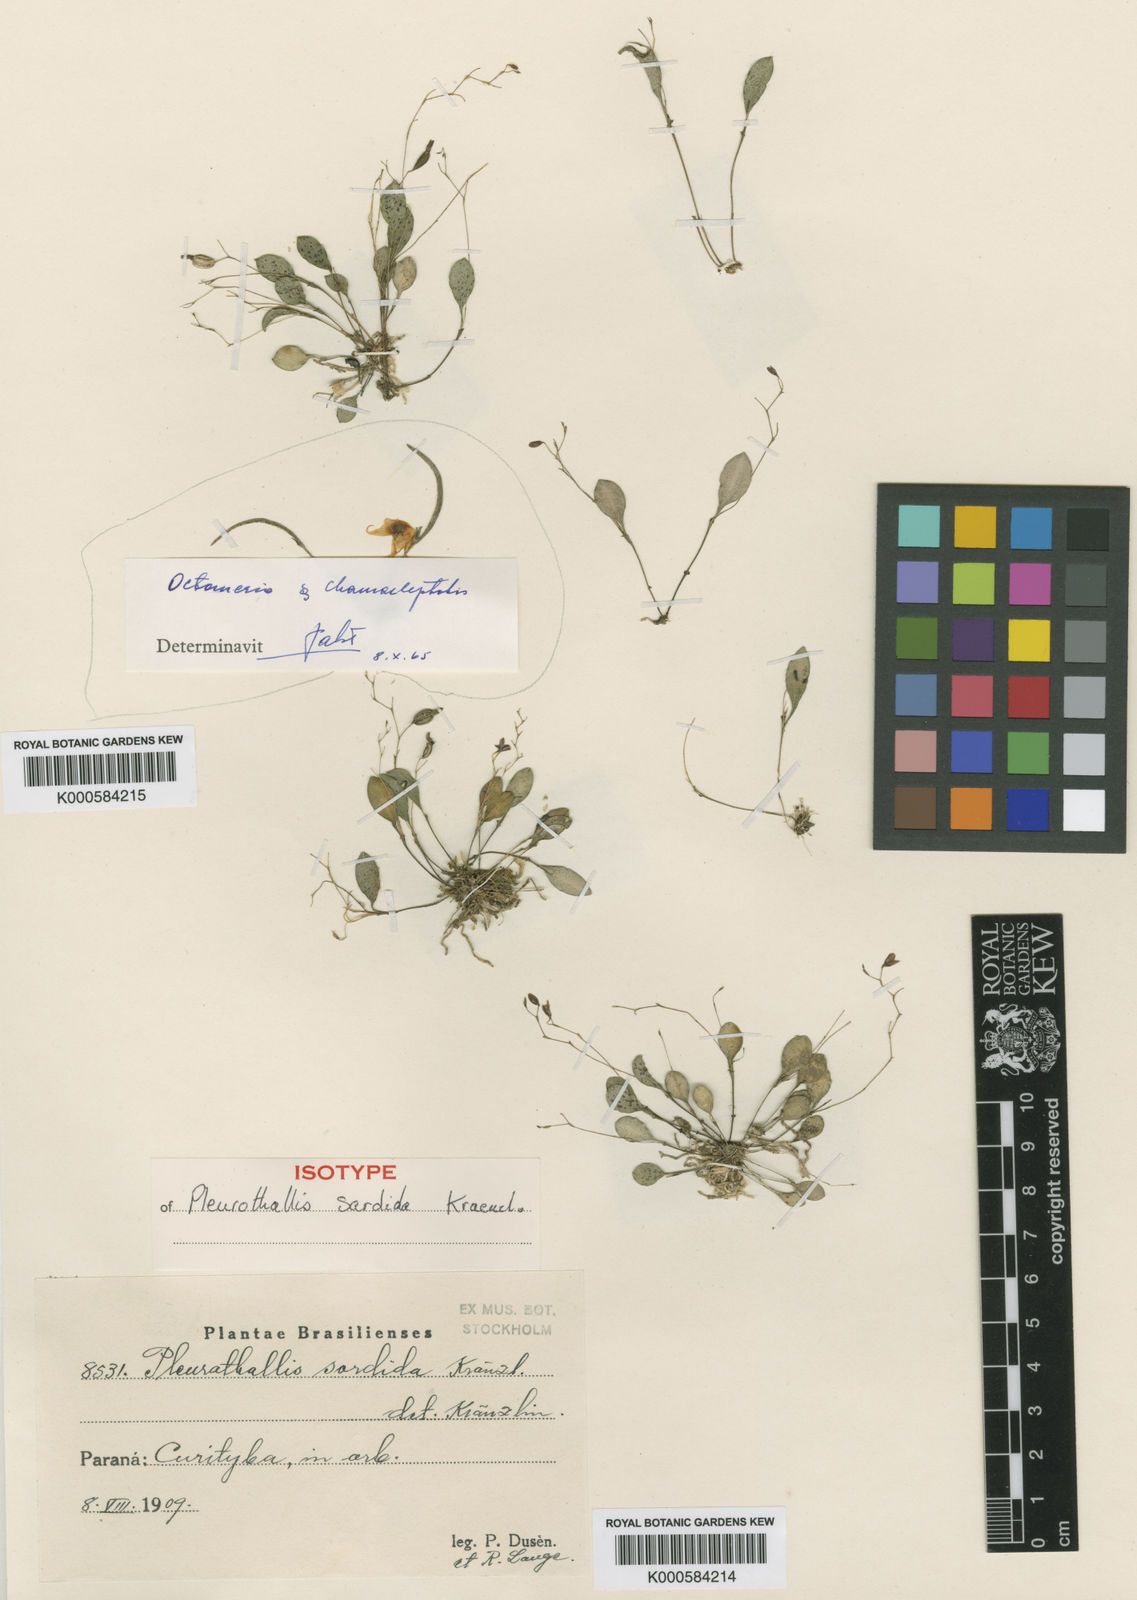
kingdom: Plantae
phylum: Tracheophyta
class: Liliopsida
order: Asparagales
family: Orchidaceae
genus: Pleurothallis
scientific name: Pleurothallis
